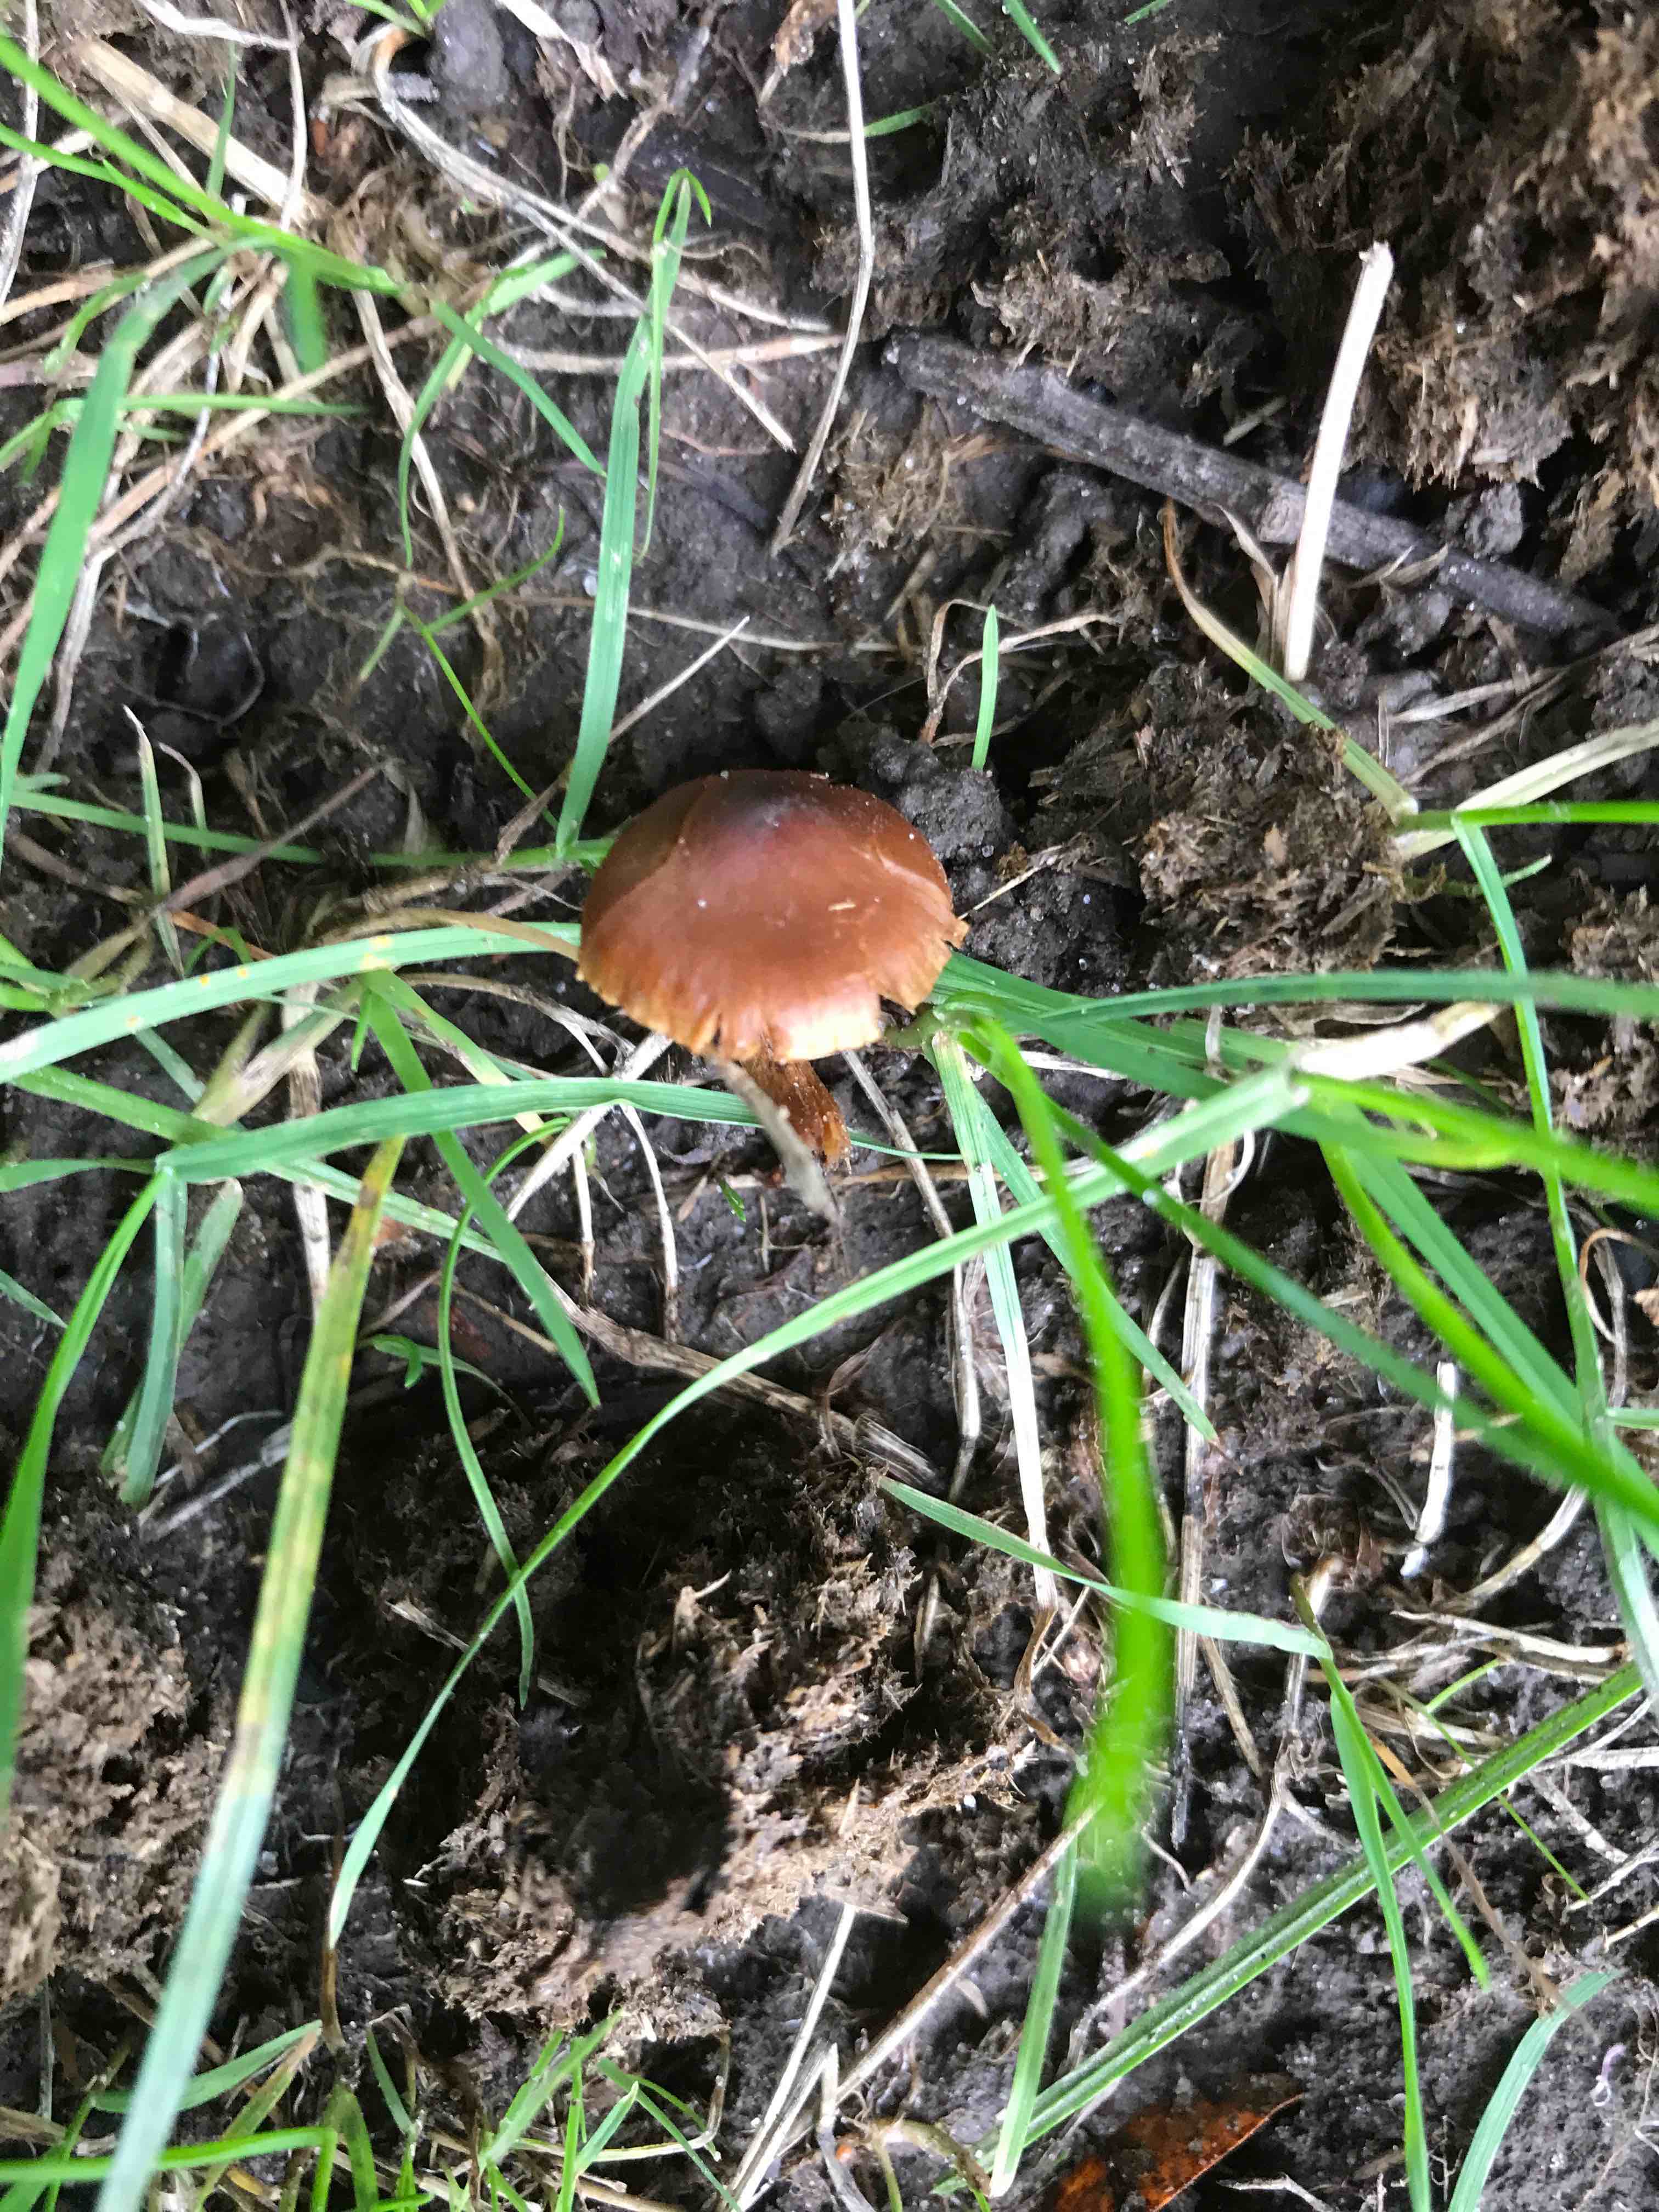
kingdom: Fungi
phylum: Basidiomycota
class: Agaricomycetes
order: Agaricales
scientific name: Agaricales
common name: champignonordenen
